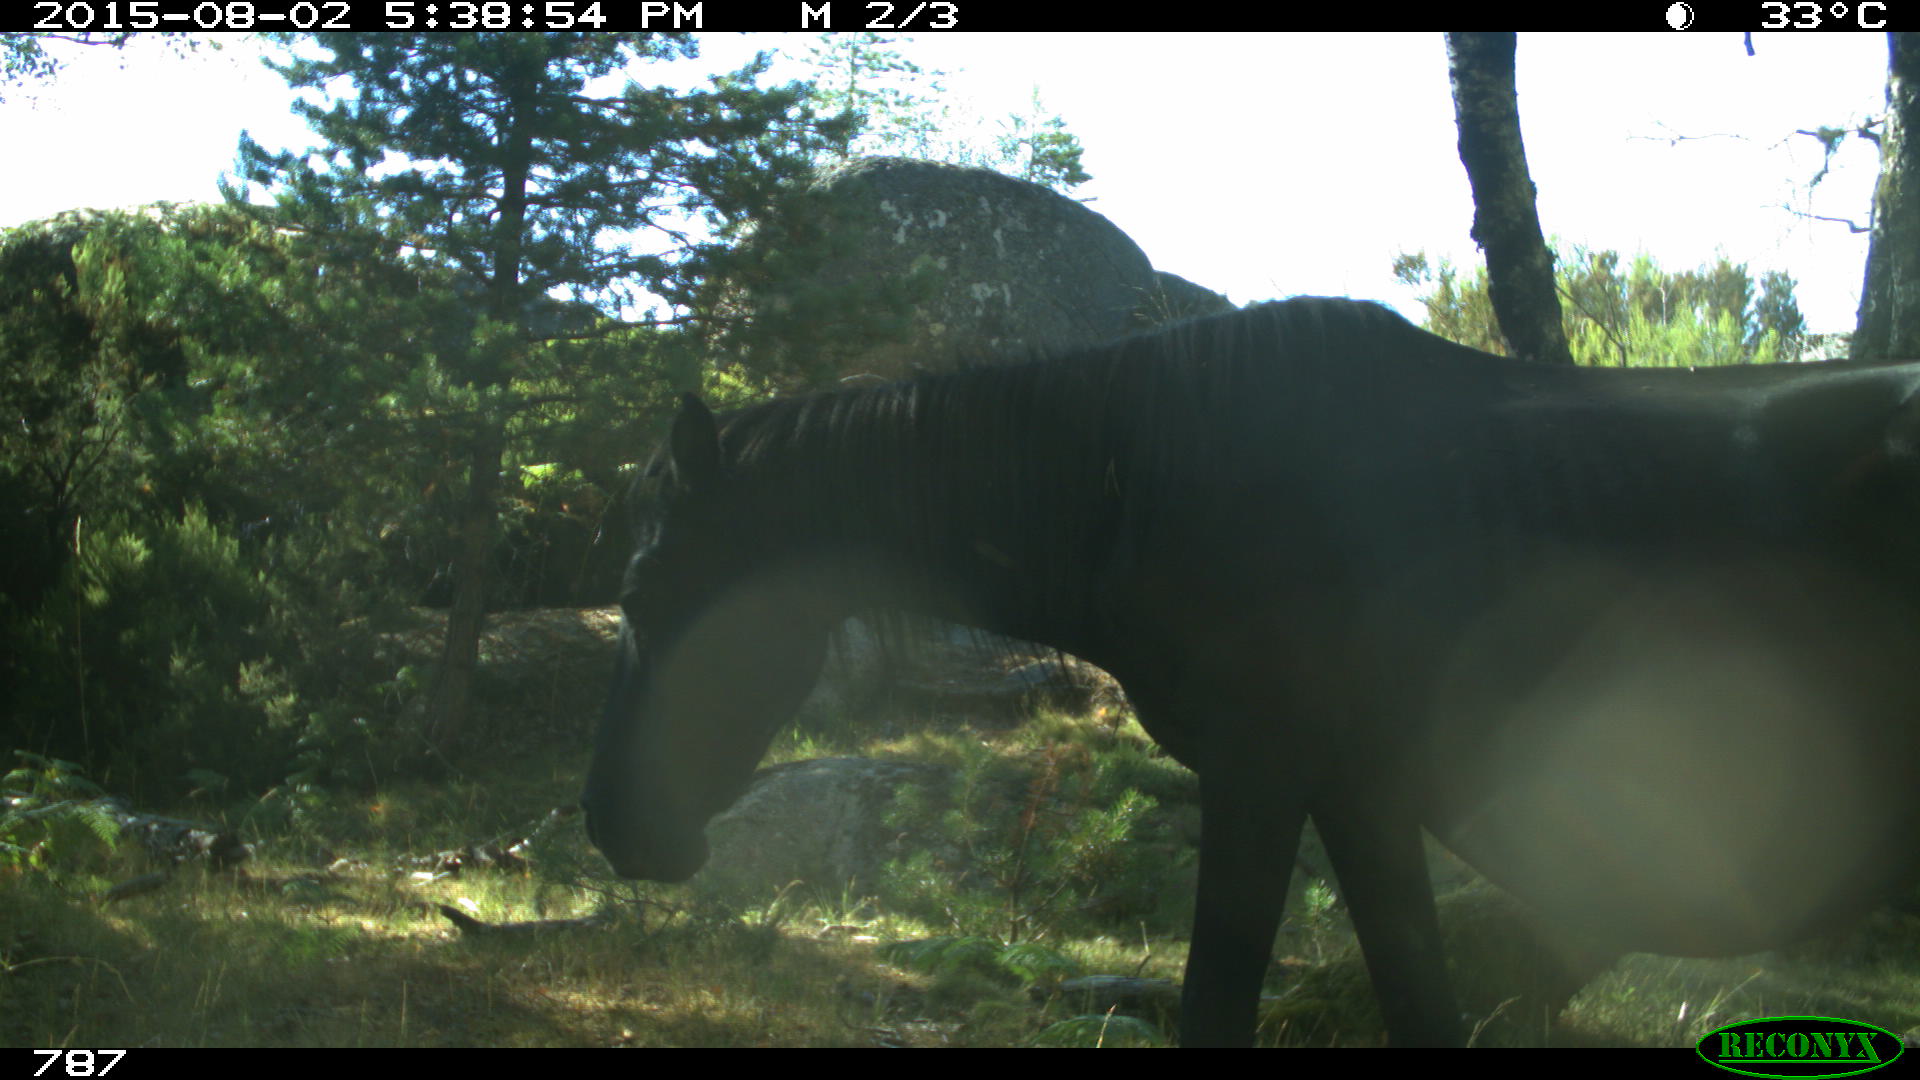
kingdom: Animalia
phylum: Chordata
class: Mammalia
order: Perissodactyla
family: Equidae
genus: Equus
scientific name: Equus caballus
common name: Horse
